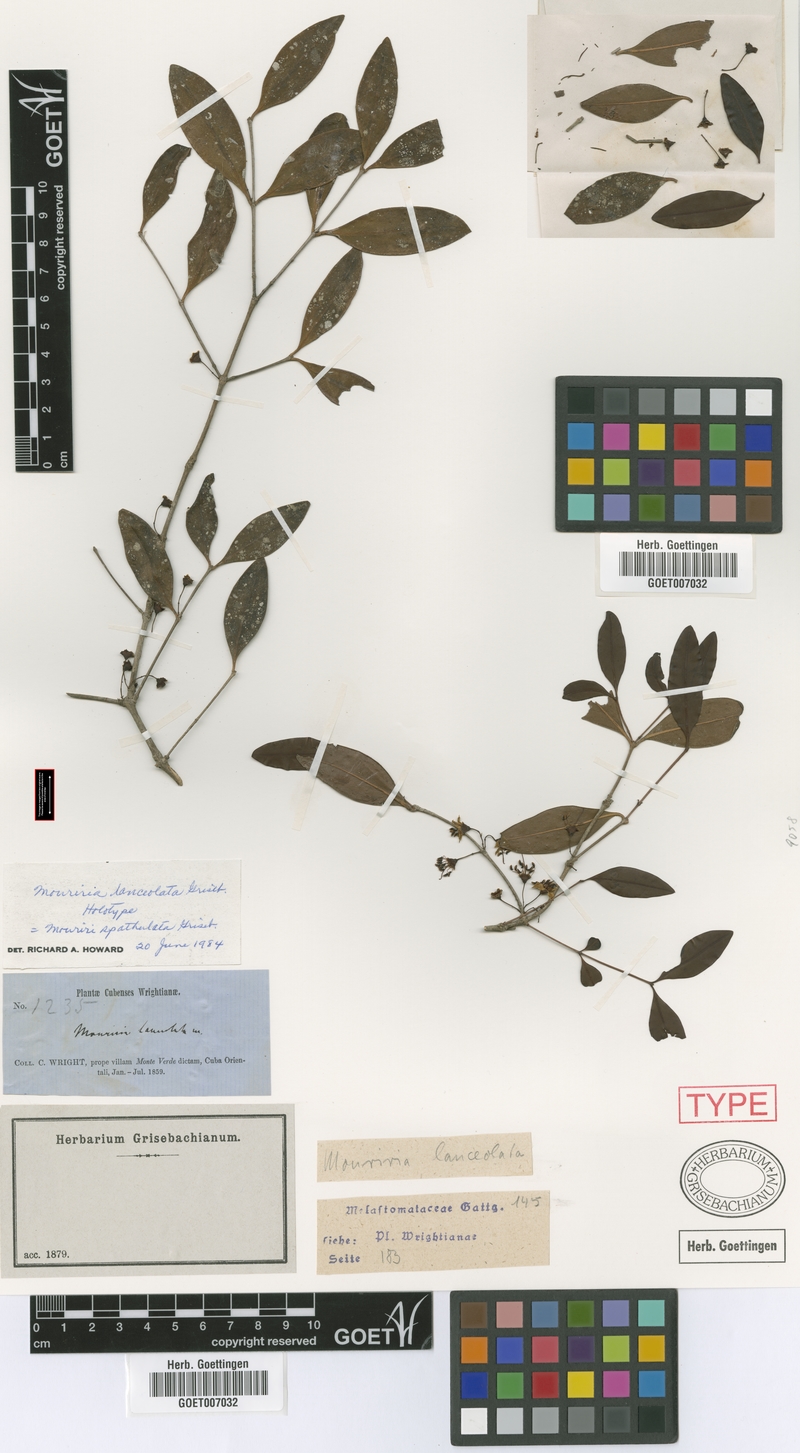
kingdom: Plantae
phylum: Tracheophyta
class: Magnoliopsida
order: Myrtales
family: Melastomataceae
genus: Mouriri
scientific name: Mouriri spathulata
